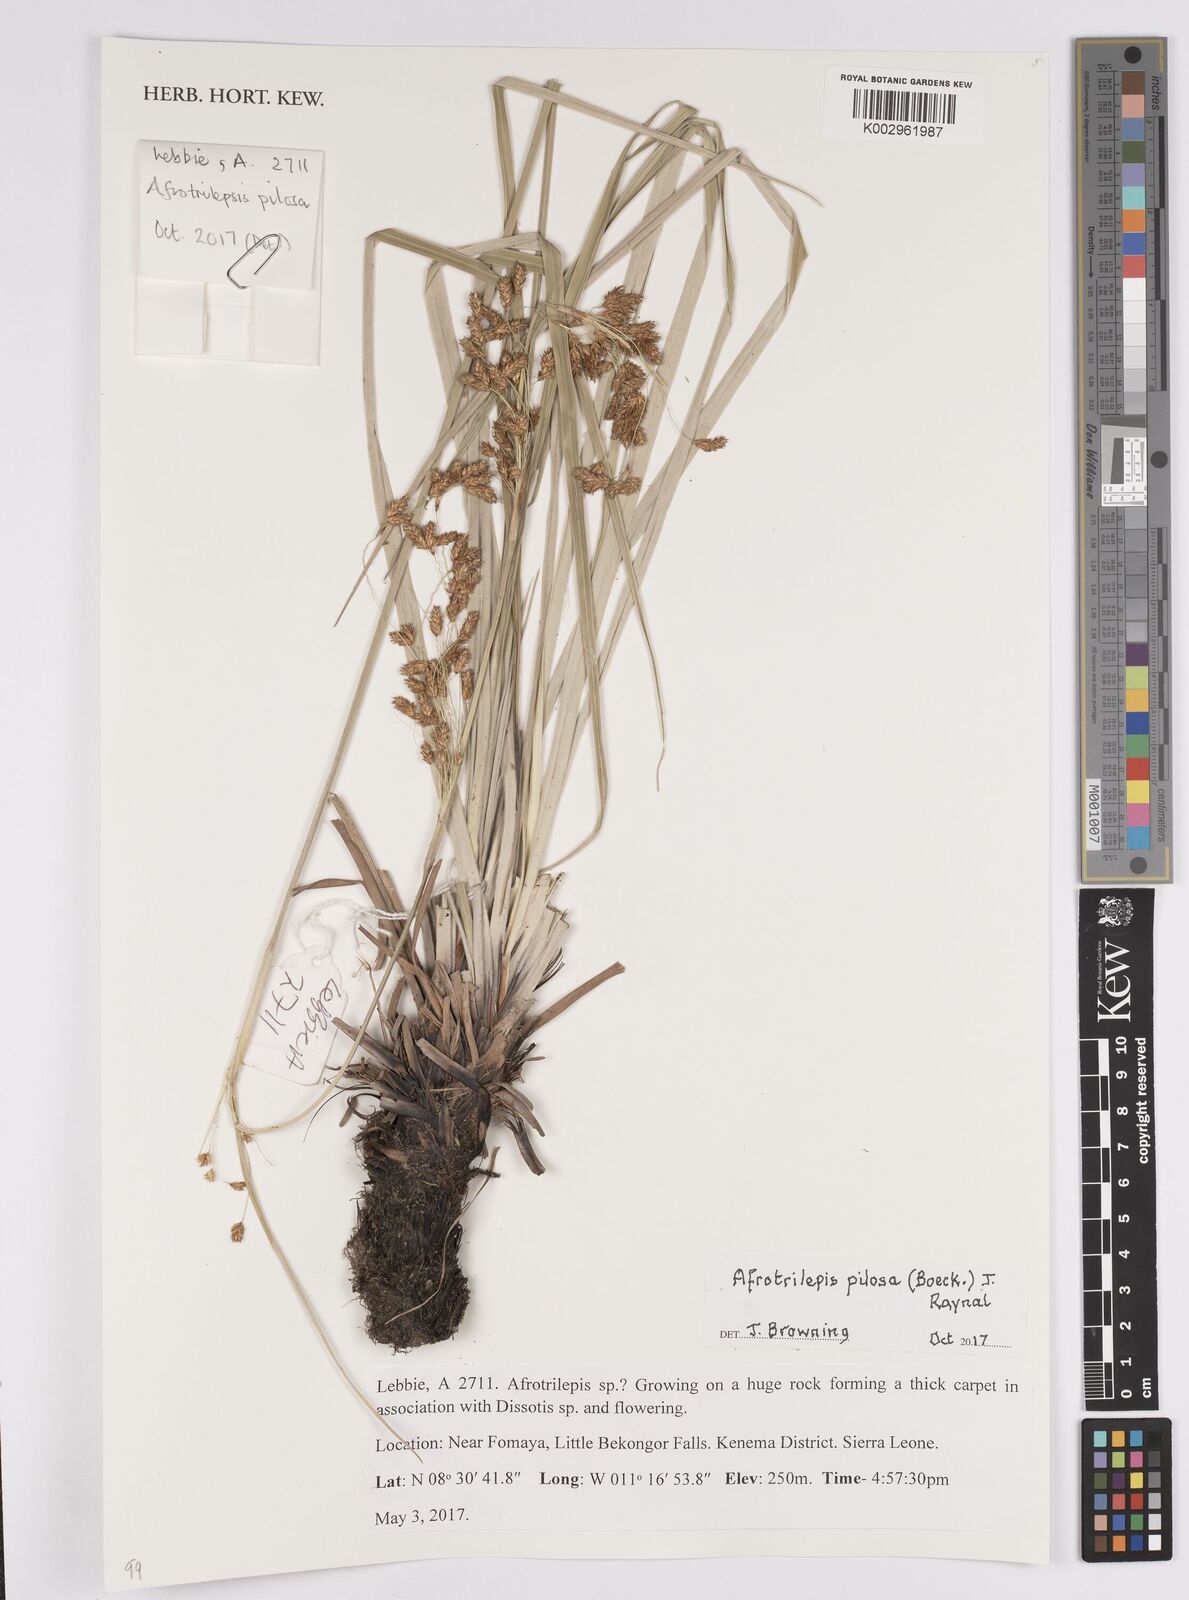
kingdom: Plantae
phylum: Tracheophyta
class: Liliopsida
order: Poales
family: Cyperaceae
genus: Afrotrilepis
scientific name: Afrotrilepis pilosa
